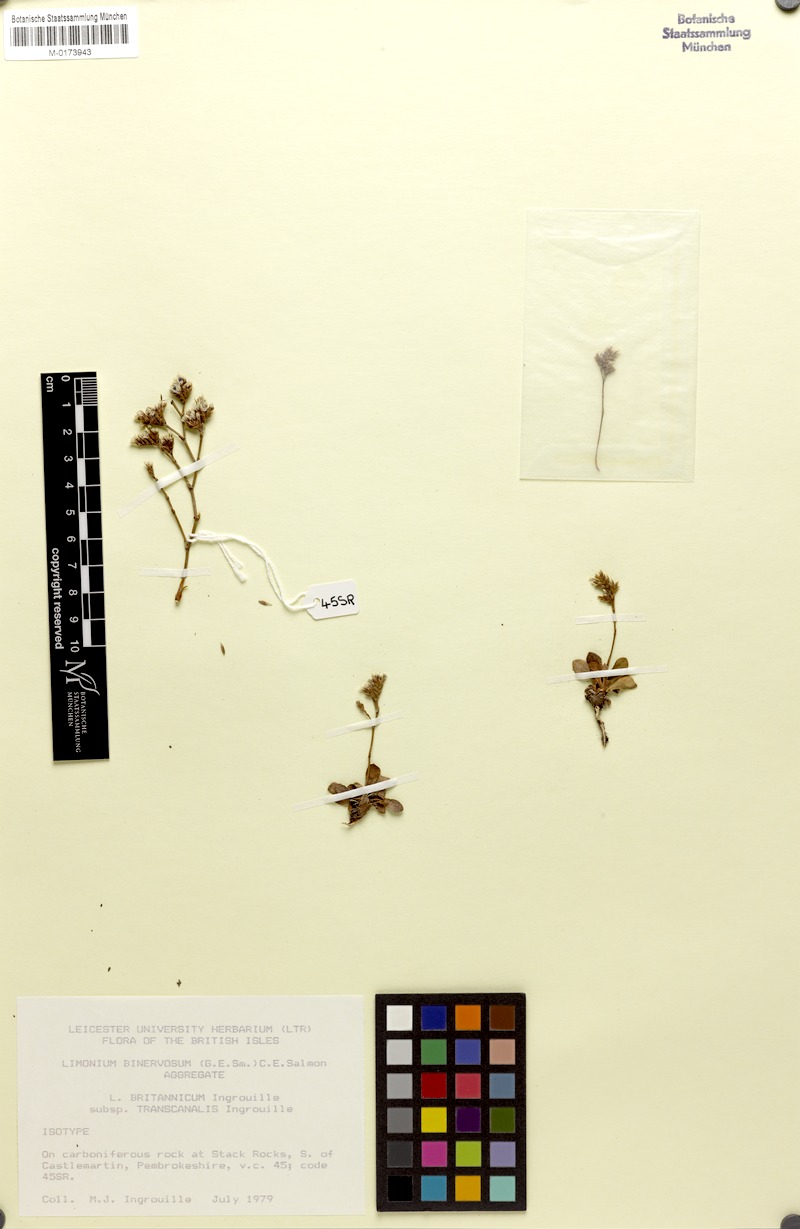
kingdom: Plantae
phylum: Tracheophyta
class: Magnoliopsida
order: Caryophyllales
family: Plumbaginaceae
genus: Limonium
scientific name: Limonium britannicum
